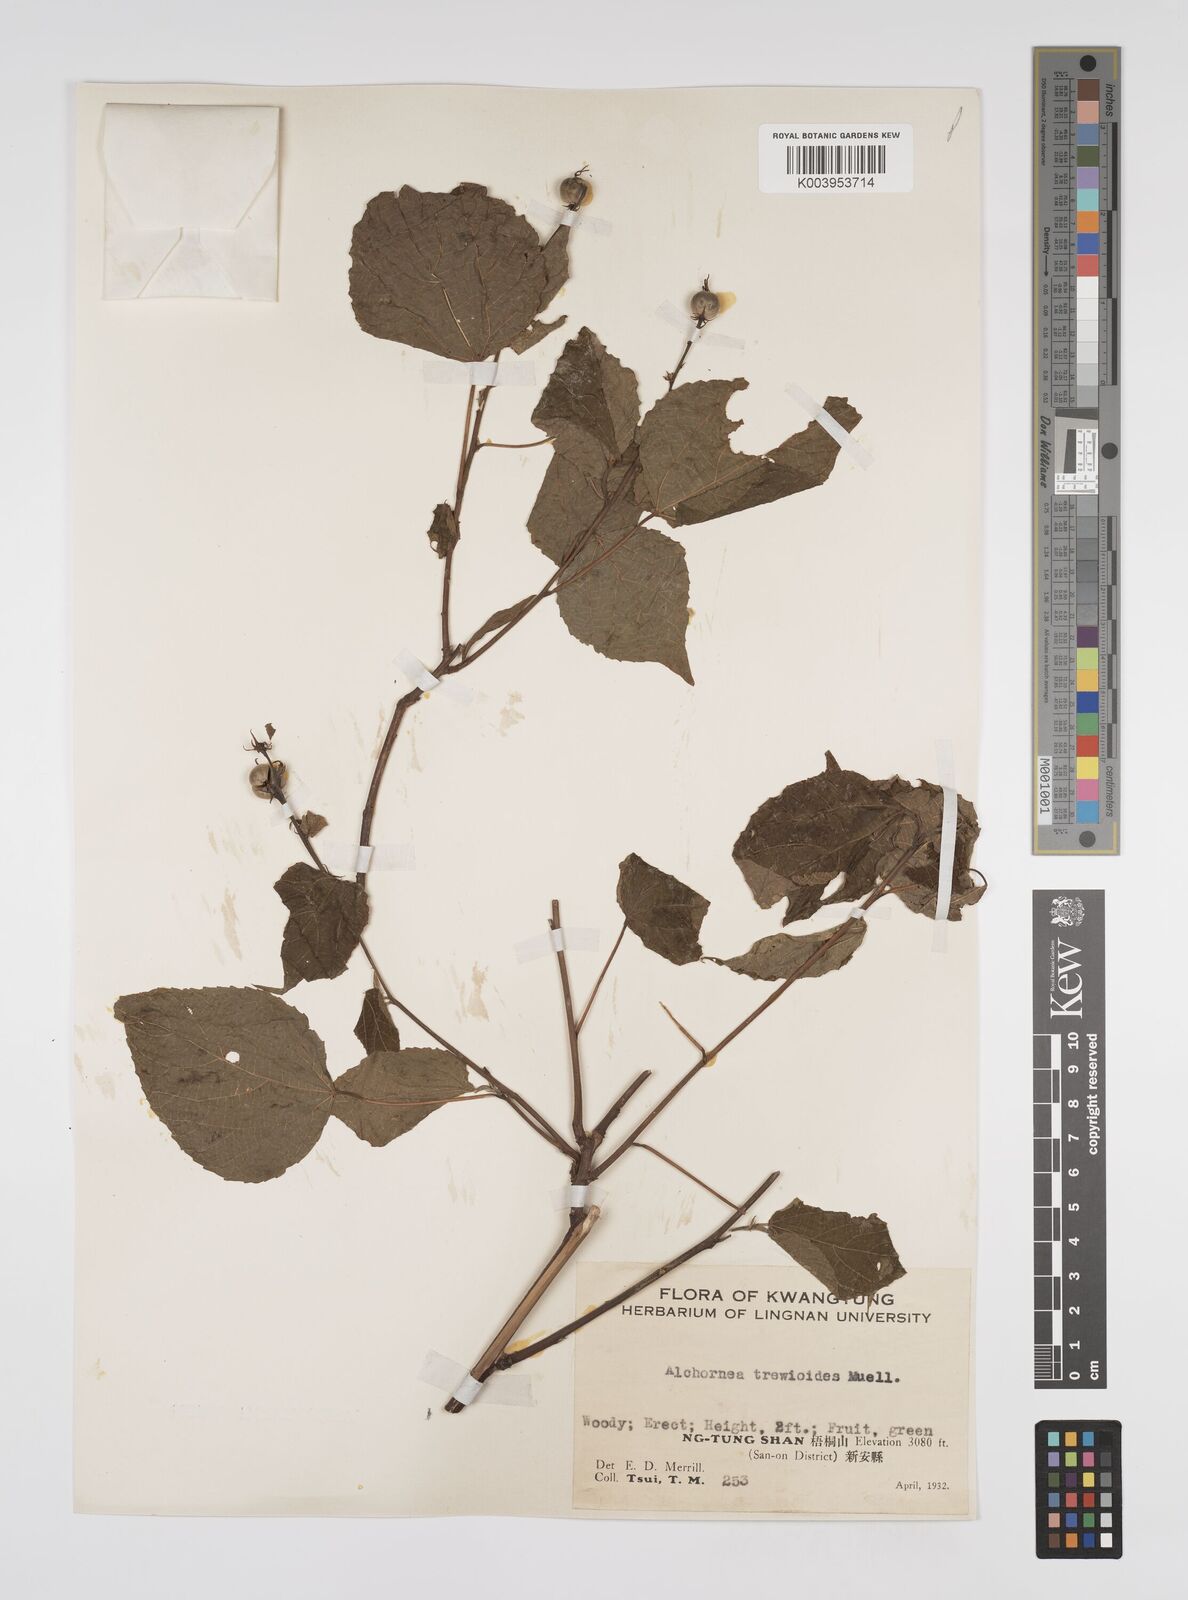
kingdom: Plantae
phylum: Tracheophyta
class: Magnoliopsida
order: Malpighiales
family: Euphorbiaceae
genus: Alchornea
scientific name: Alchornea trewioides
